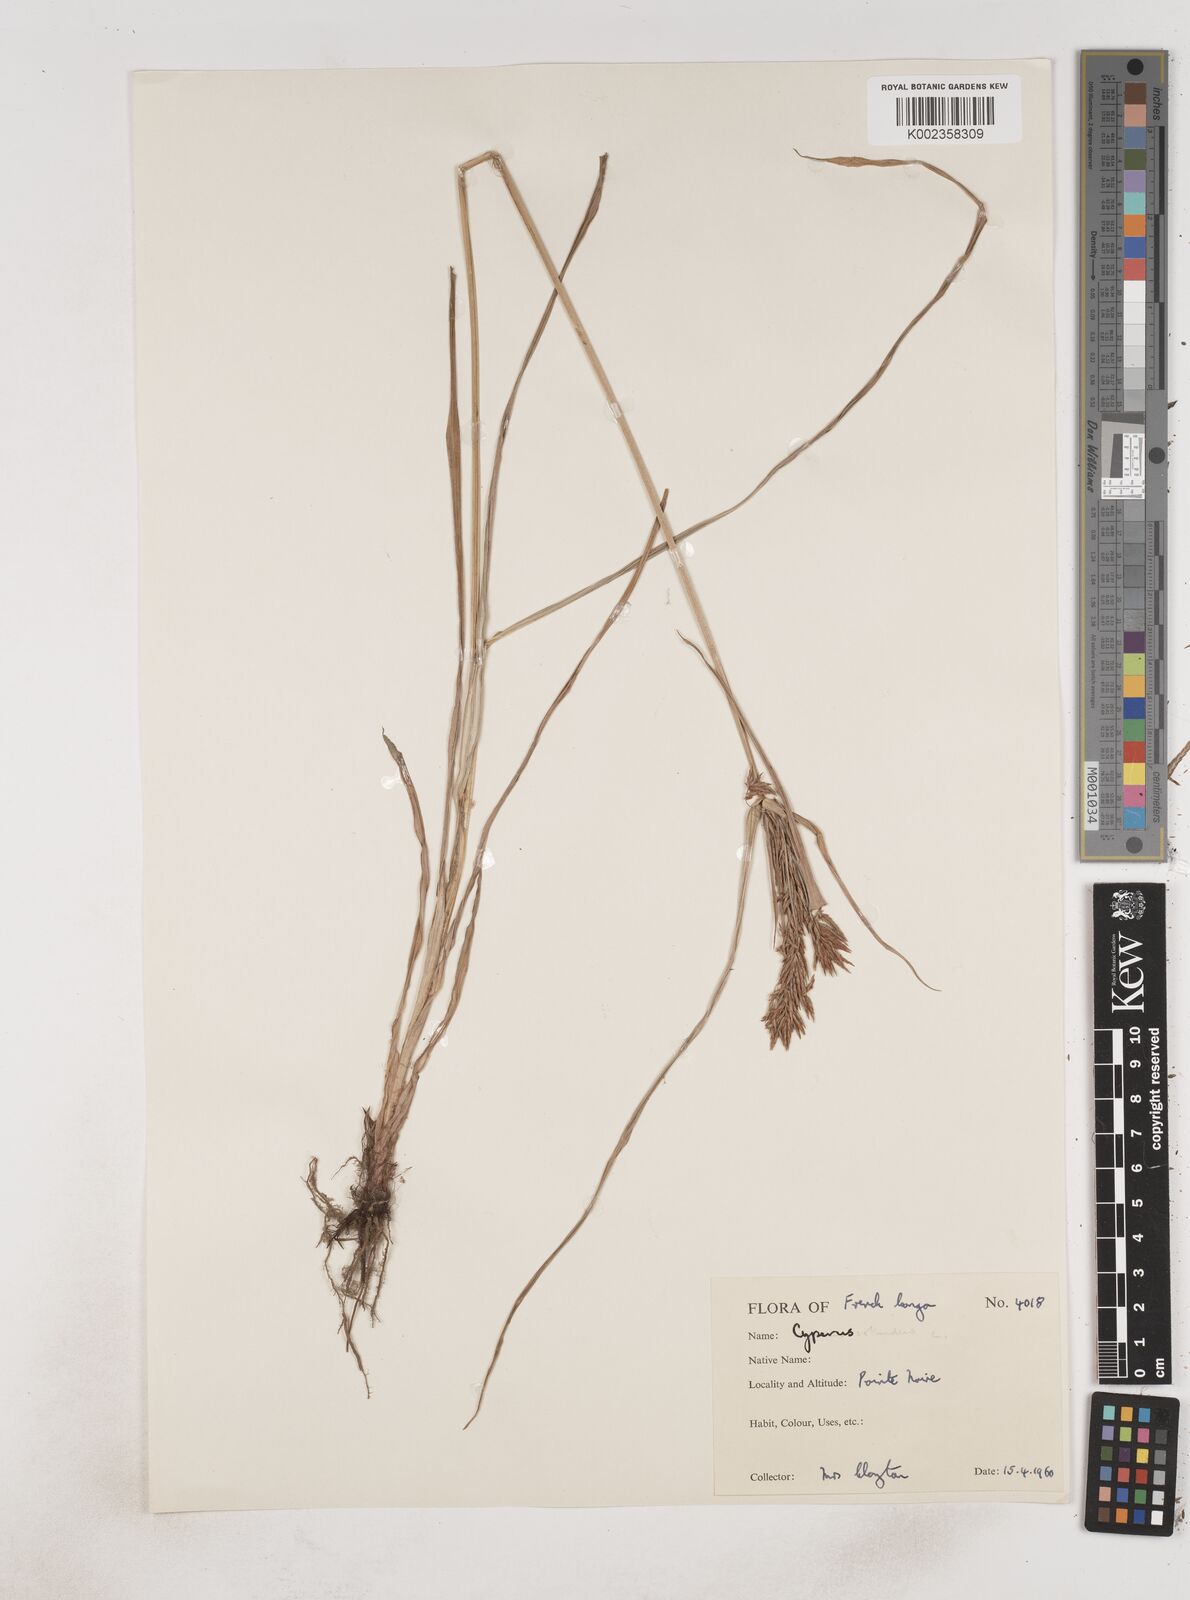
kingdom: Plantae
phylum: Tracheophyta
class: Liliopsida
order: Poales
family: Cyperaceae
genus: Cyperus
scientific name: Cyperus rotundus
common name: Nutgrass
